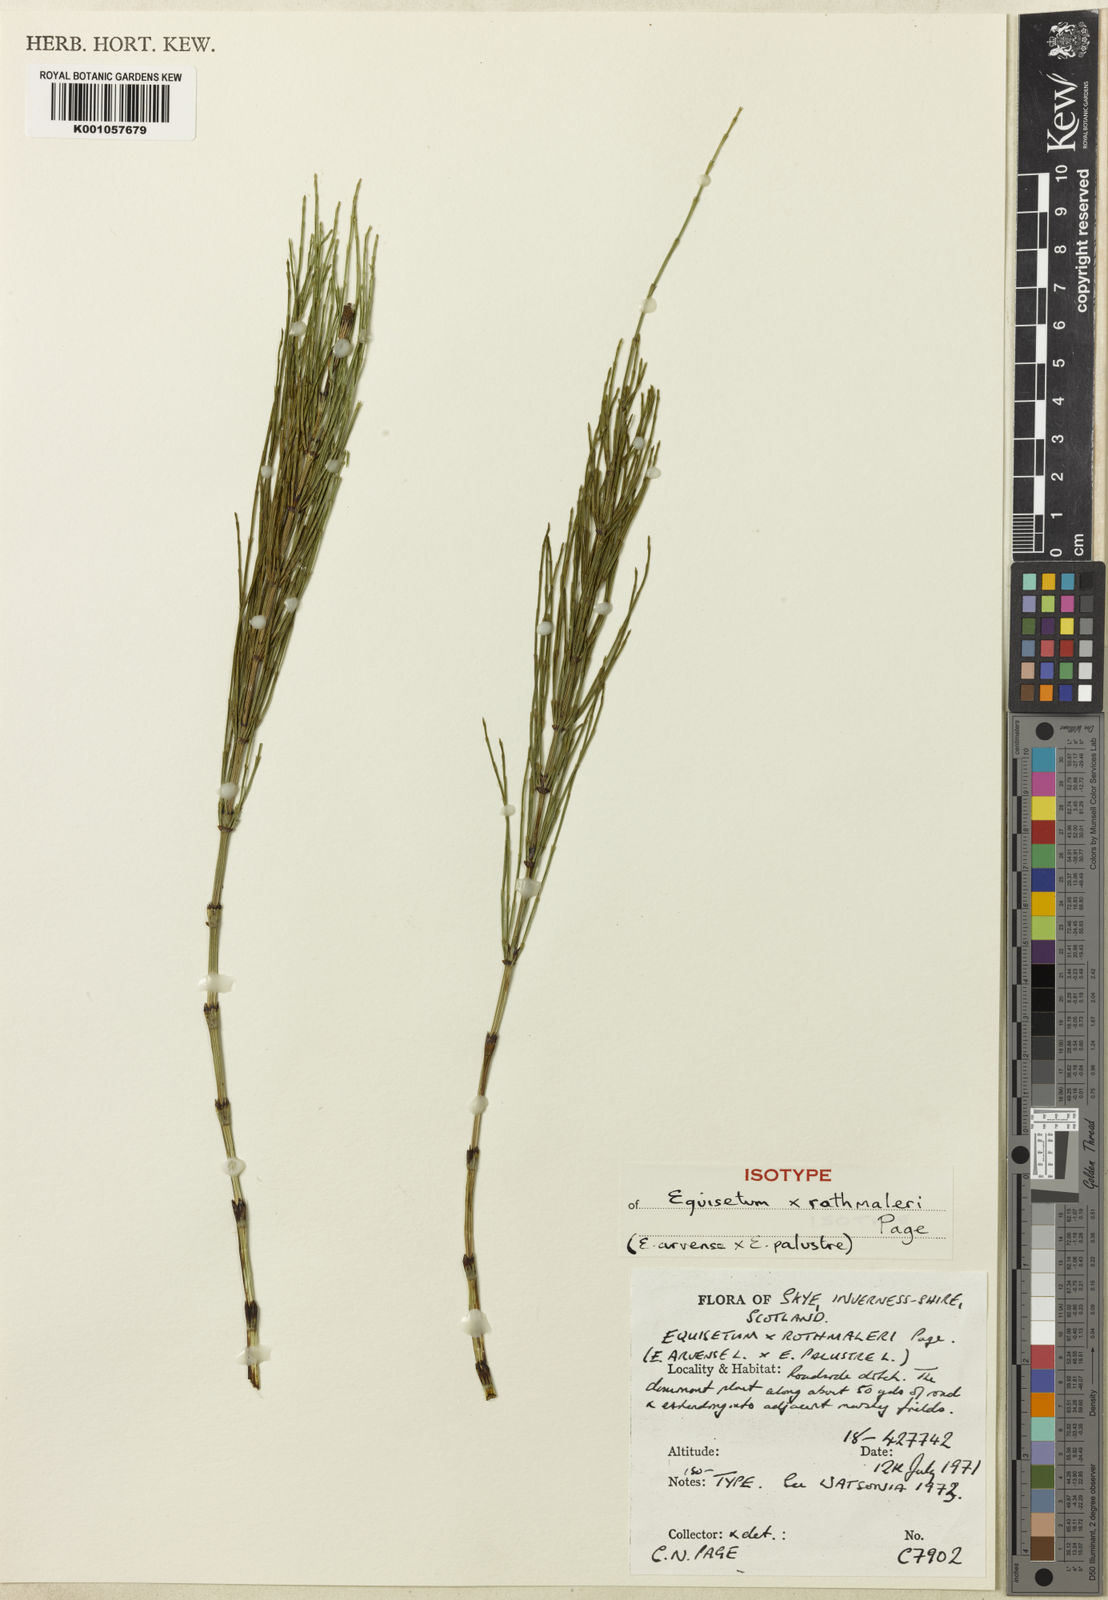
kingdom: Plantae
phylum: Tracheophyta
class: Polypodiopsida
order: Equisetales
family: Equisetaceae
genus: Equisetum
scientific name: Equisetum torgesianum
